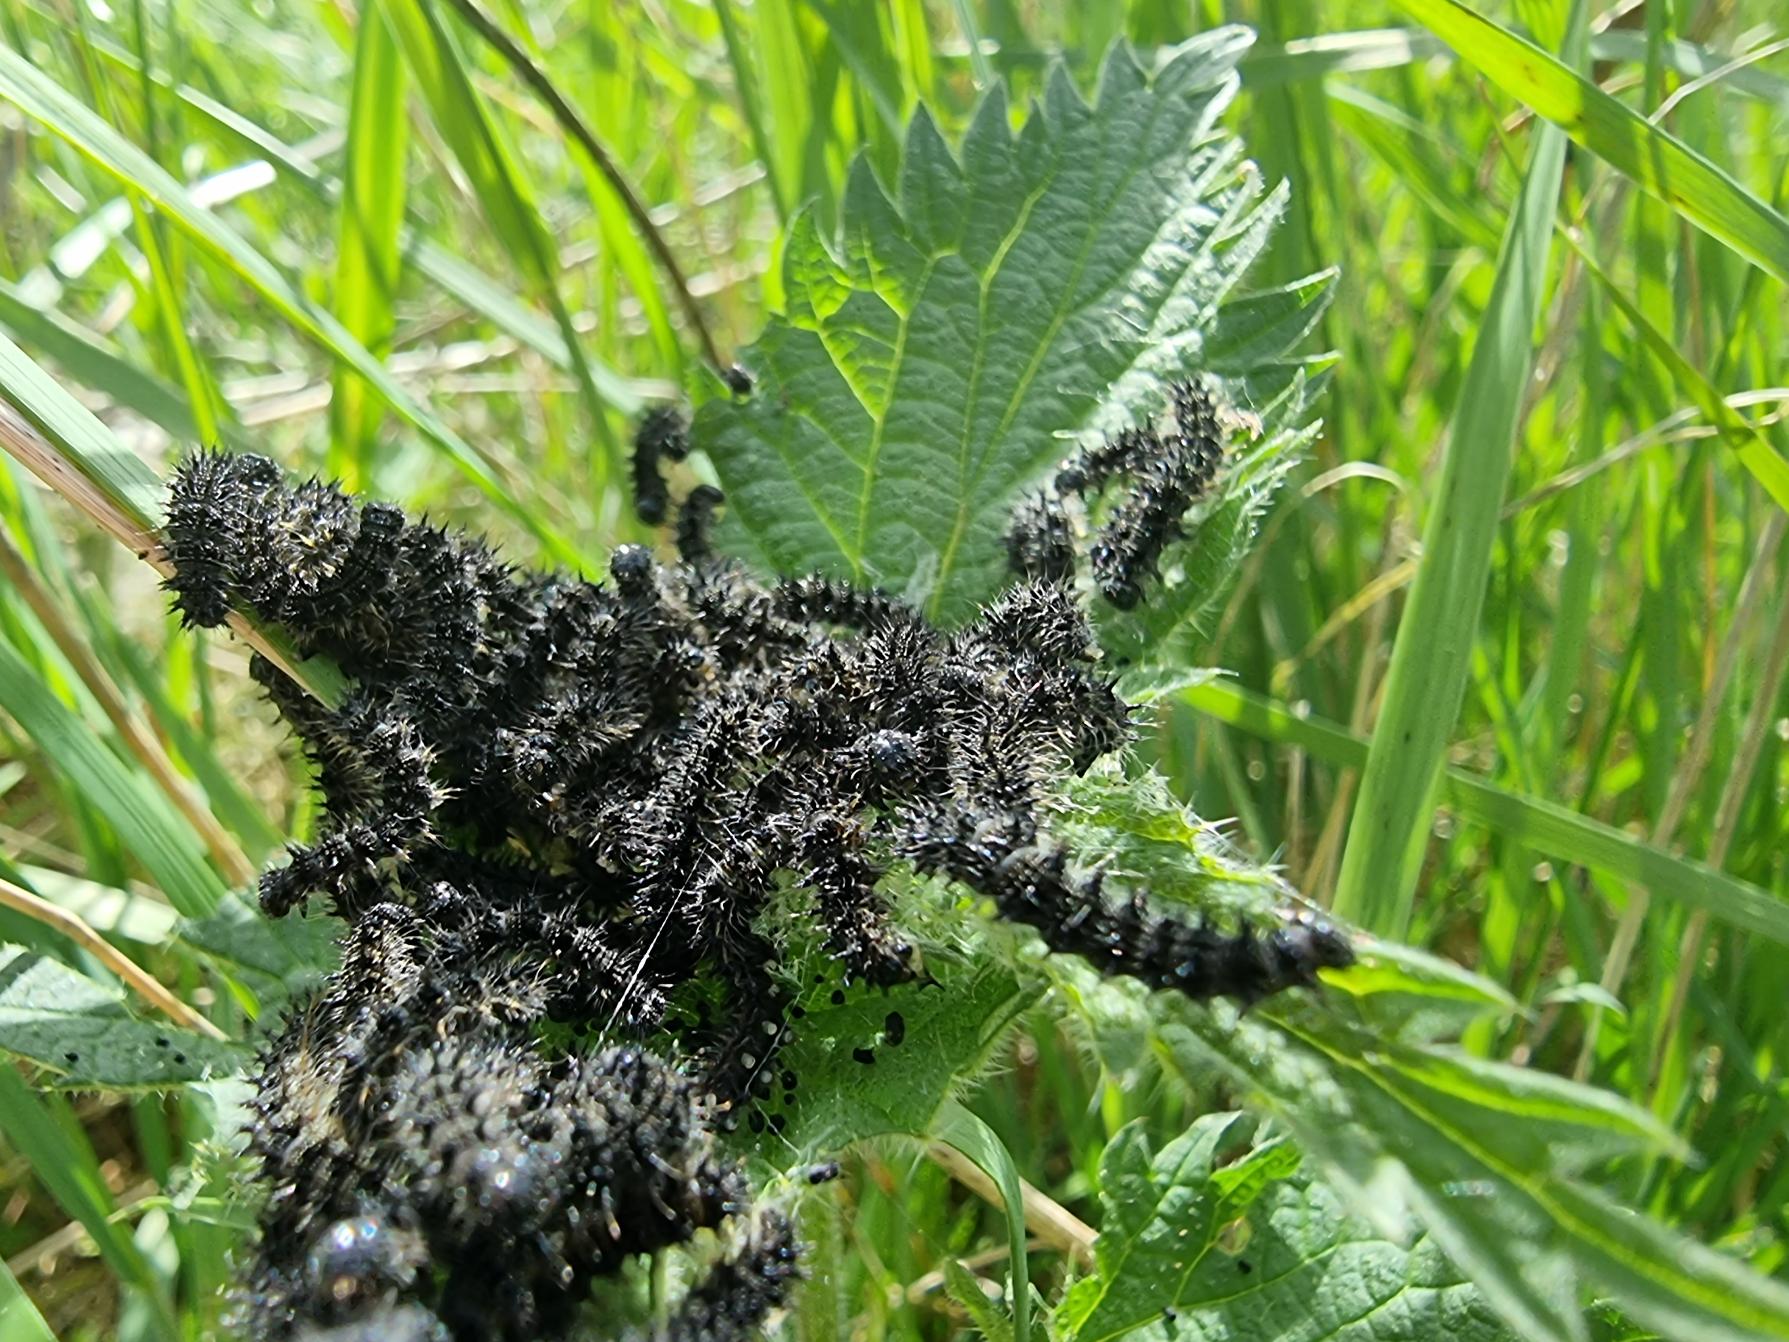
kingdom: Animalia
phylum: Arthropoda
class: Insecta
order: Lepidoptera
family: Nymphalidae
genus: Aglais
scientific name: Aglais urticae
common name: Nældens takvinge
